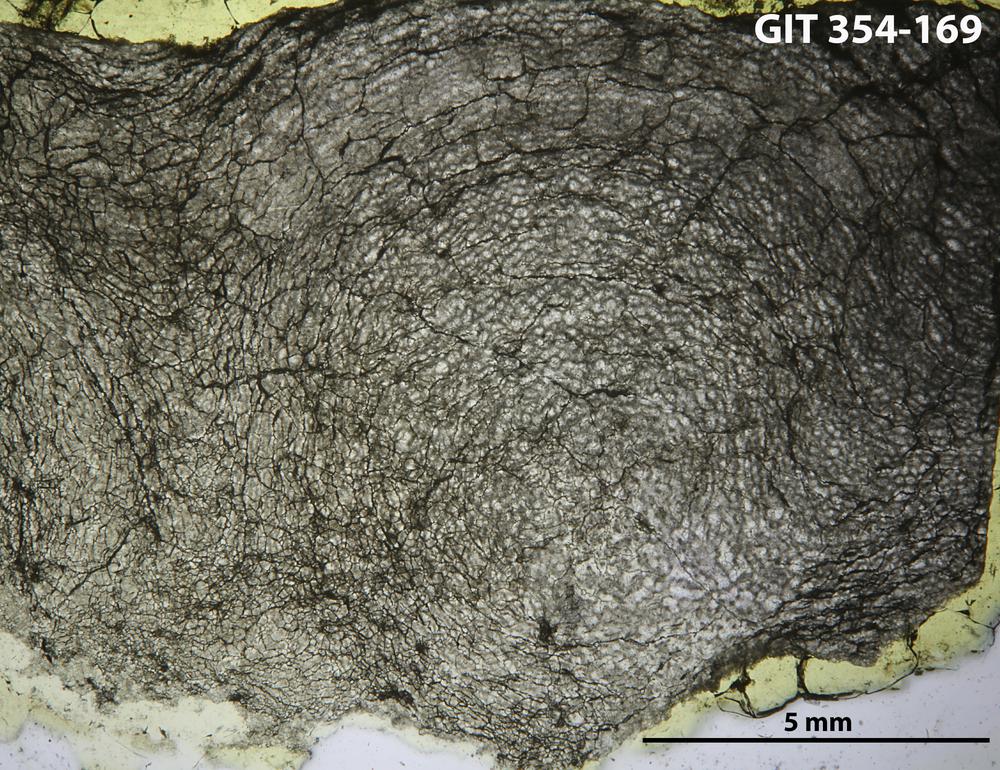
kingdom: Animalia
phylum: Porifera
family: Clathrodictyidae
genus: Clathrodictyon
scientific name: Clathrodictyon boreale
